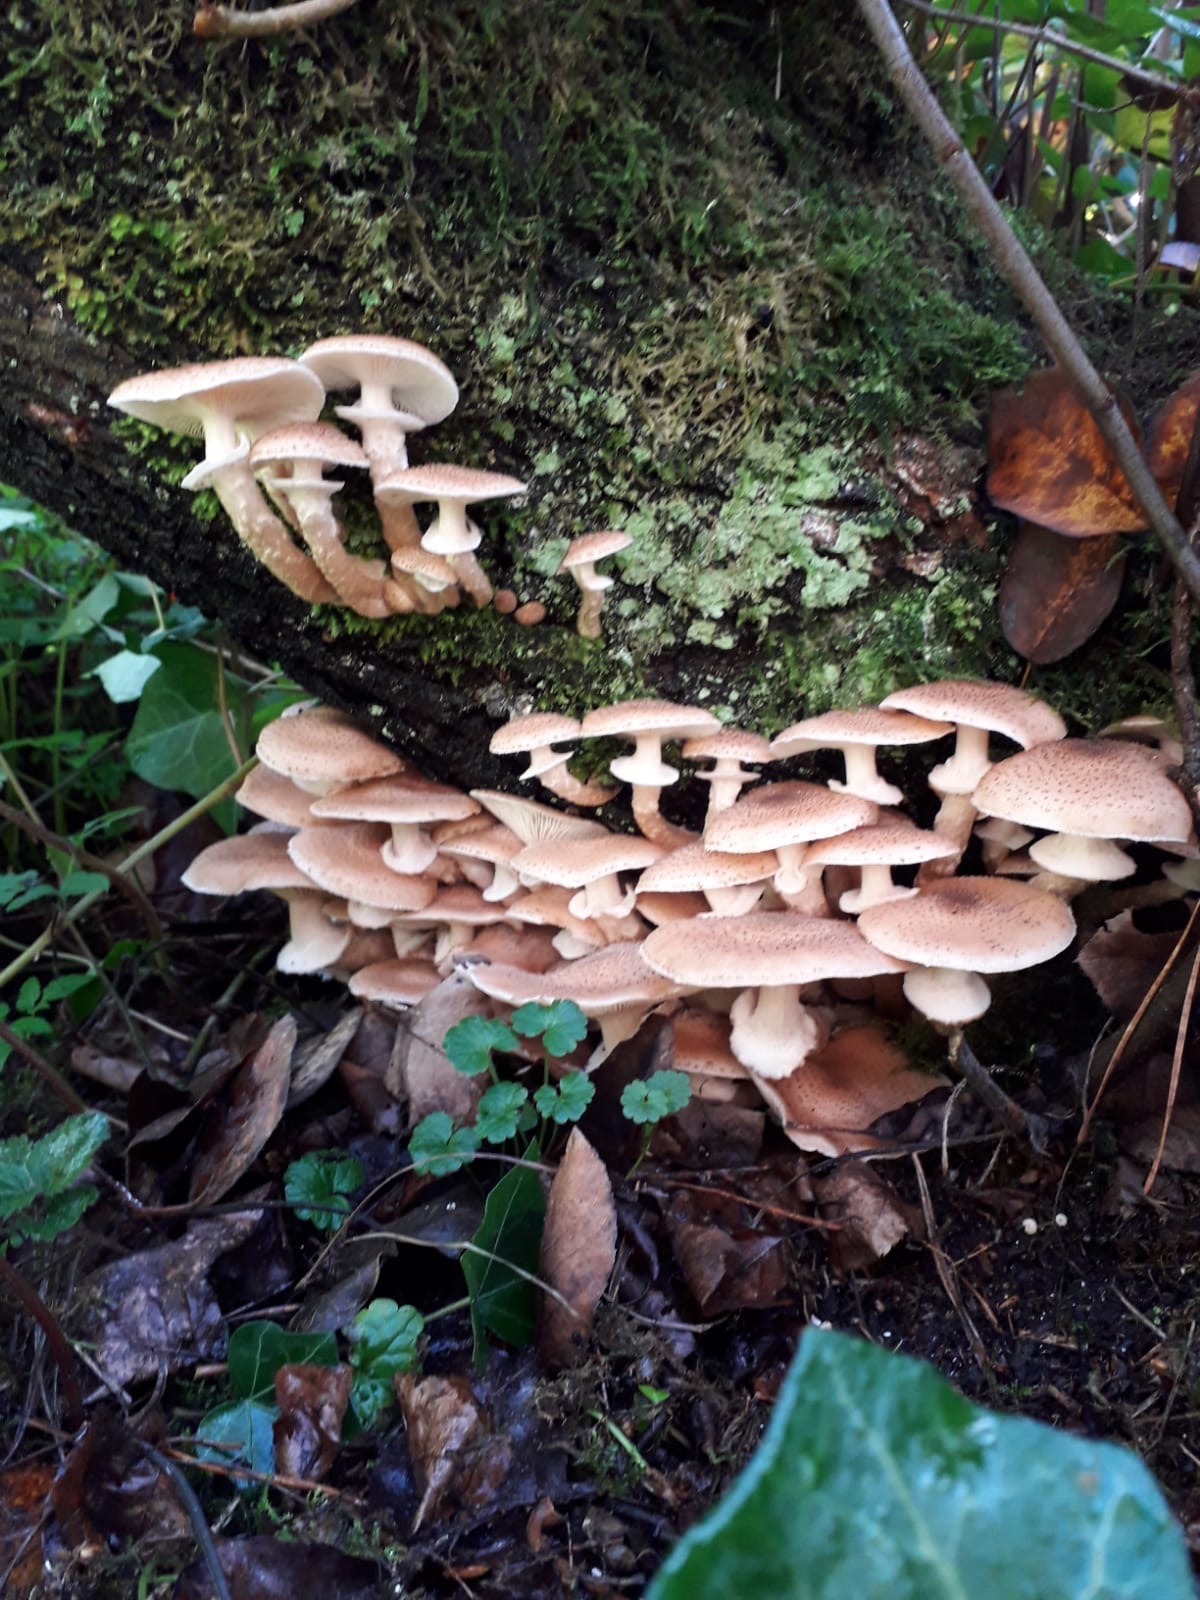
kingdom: Fungi
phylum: Basidiomycota
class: Agaricomycetes
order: Agaricales
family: Physalacriaceae
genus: Armillaria
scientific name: Armillaria ostoyae
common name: mørk honningsvamp
